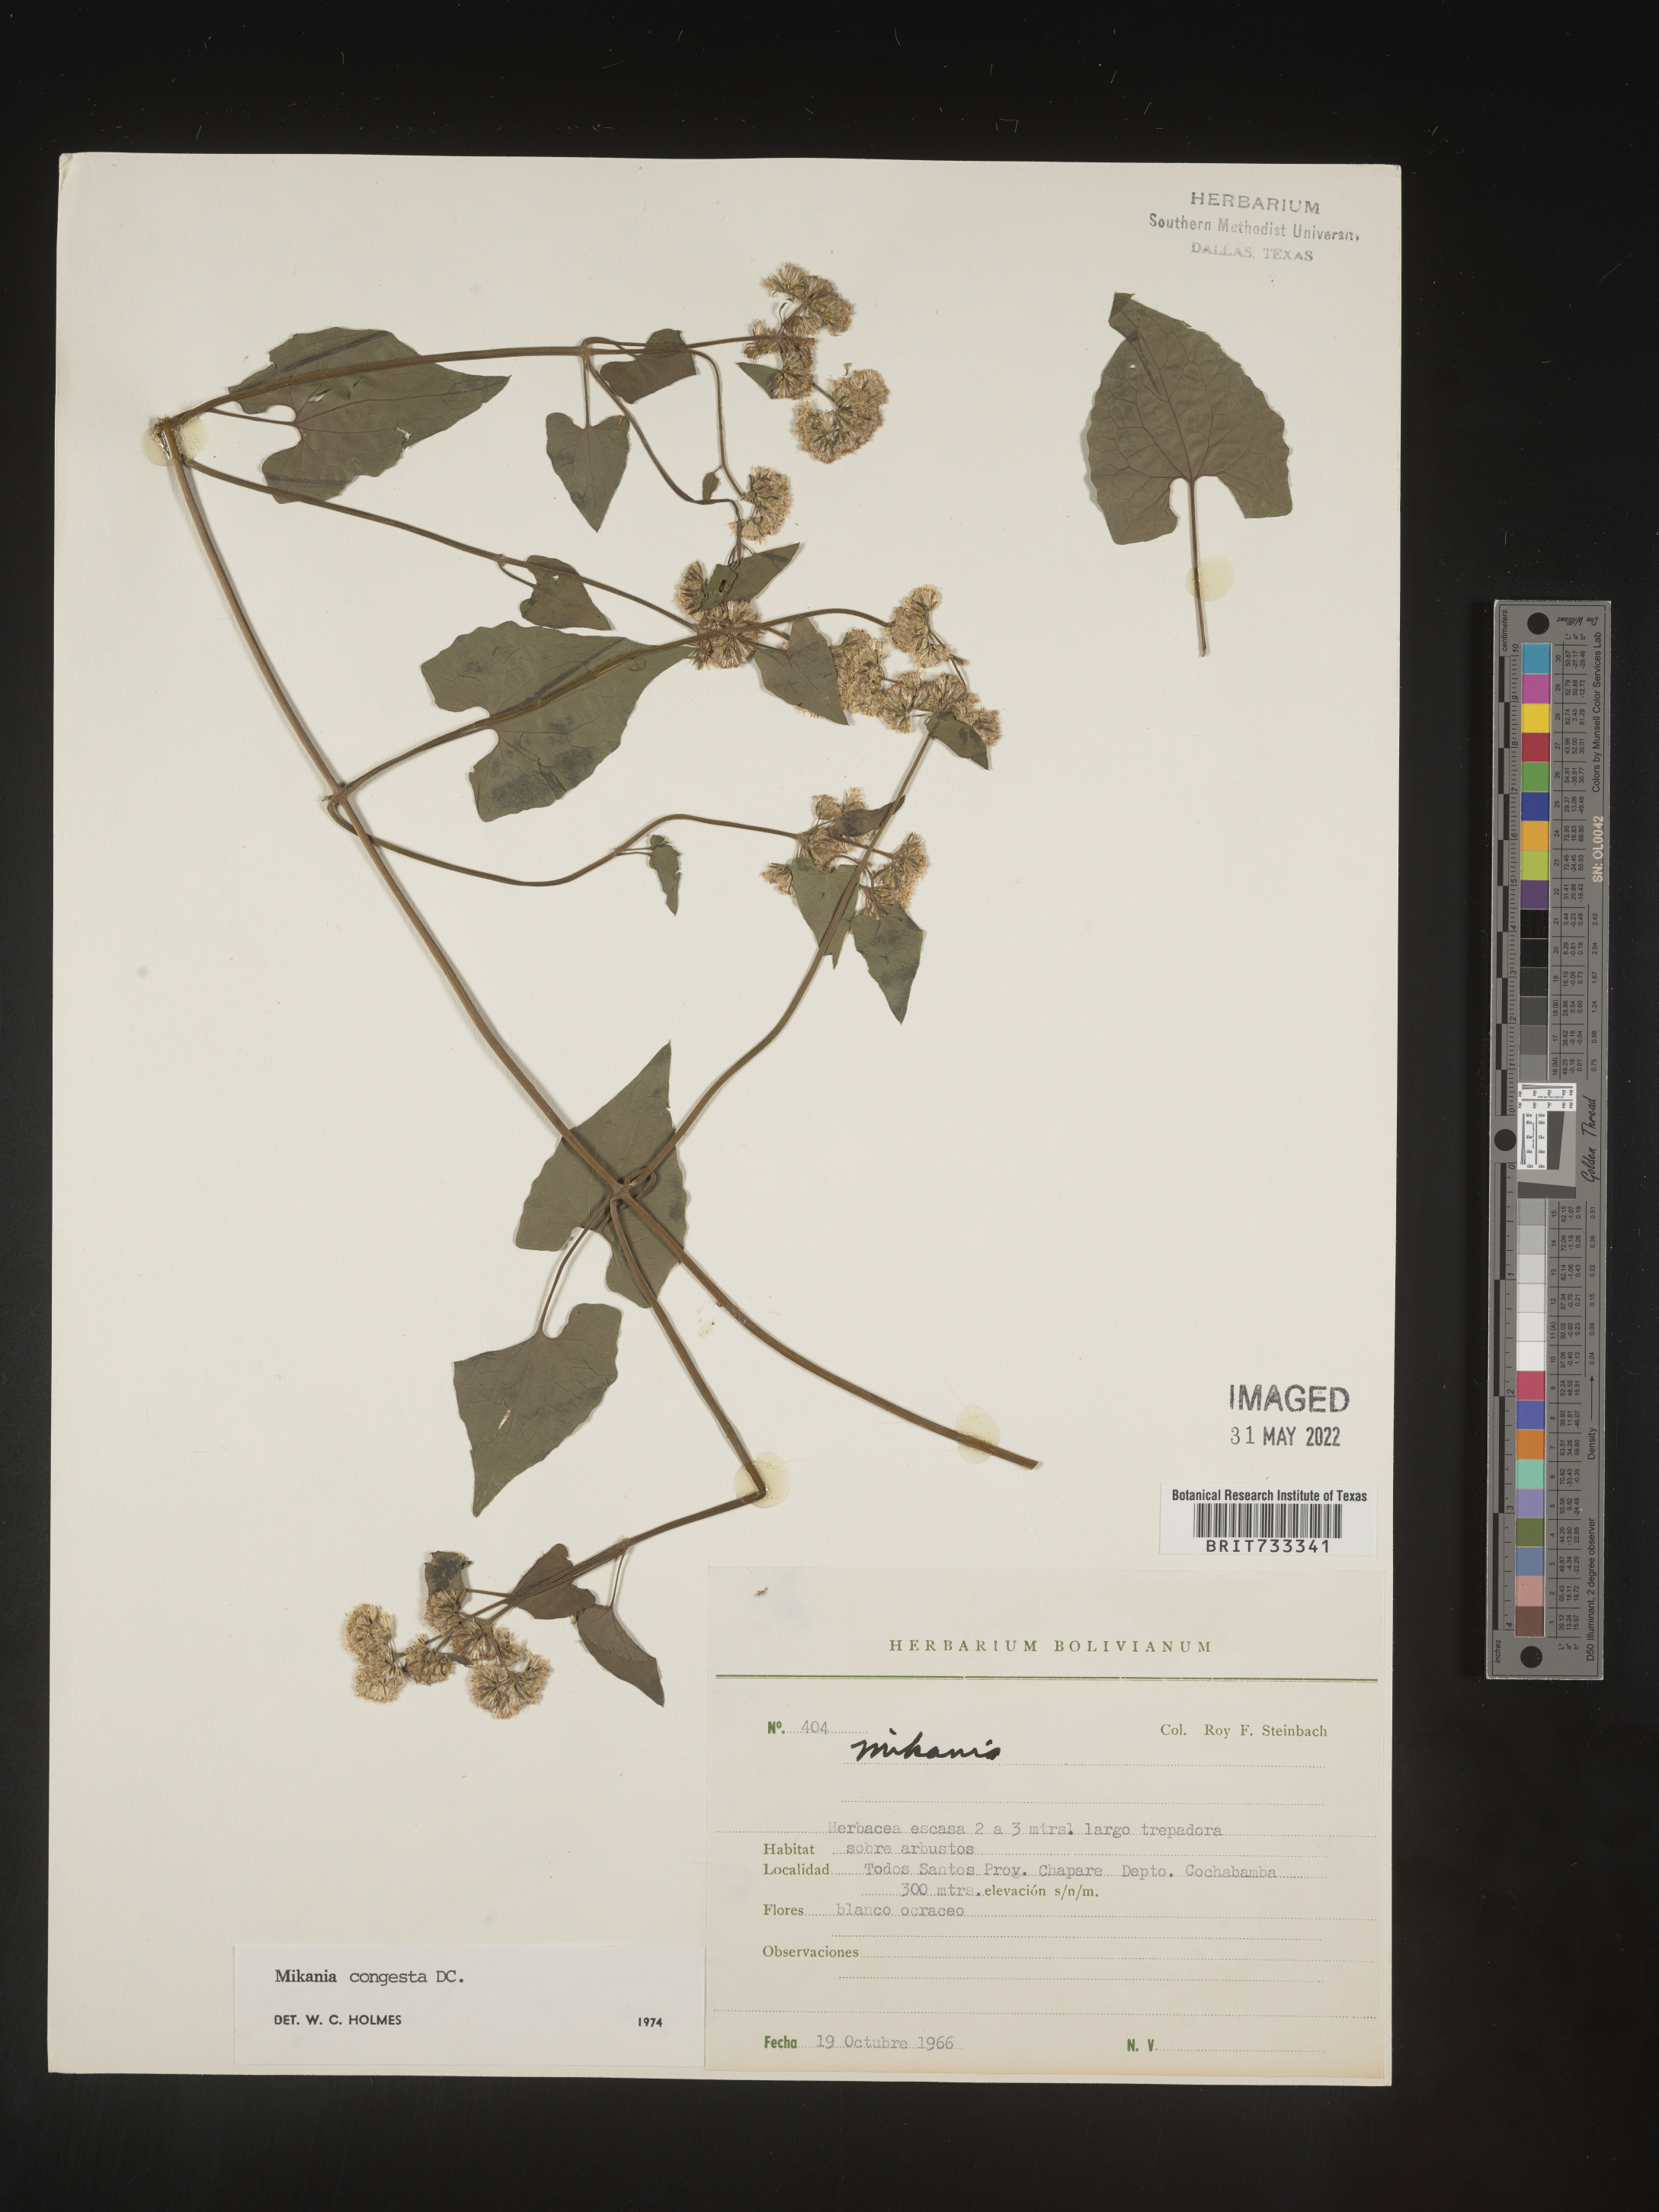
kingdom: Plantae
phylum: Tracheophyta
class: Magnoliopsida
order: Asterales
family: Asteraceae
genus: Mikania
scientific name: Mikania
